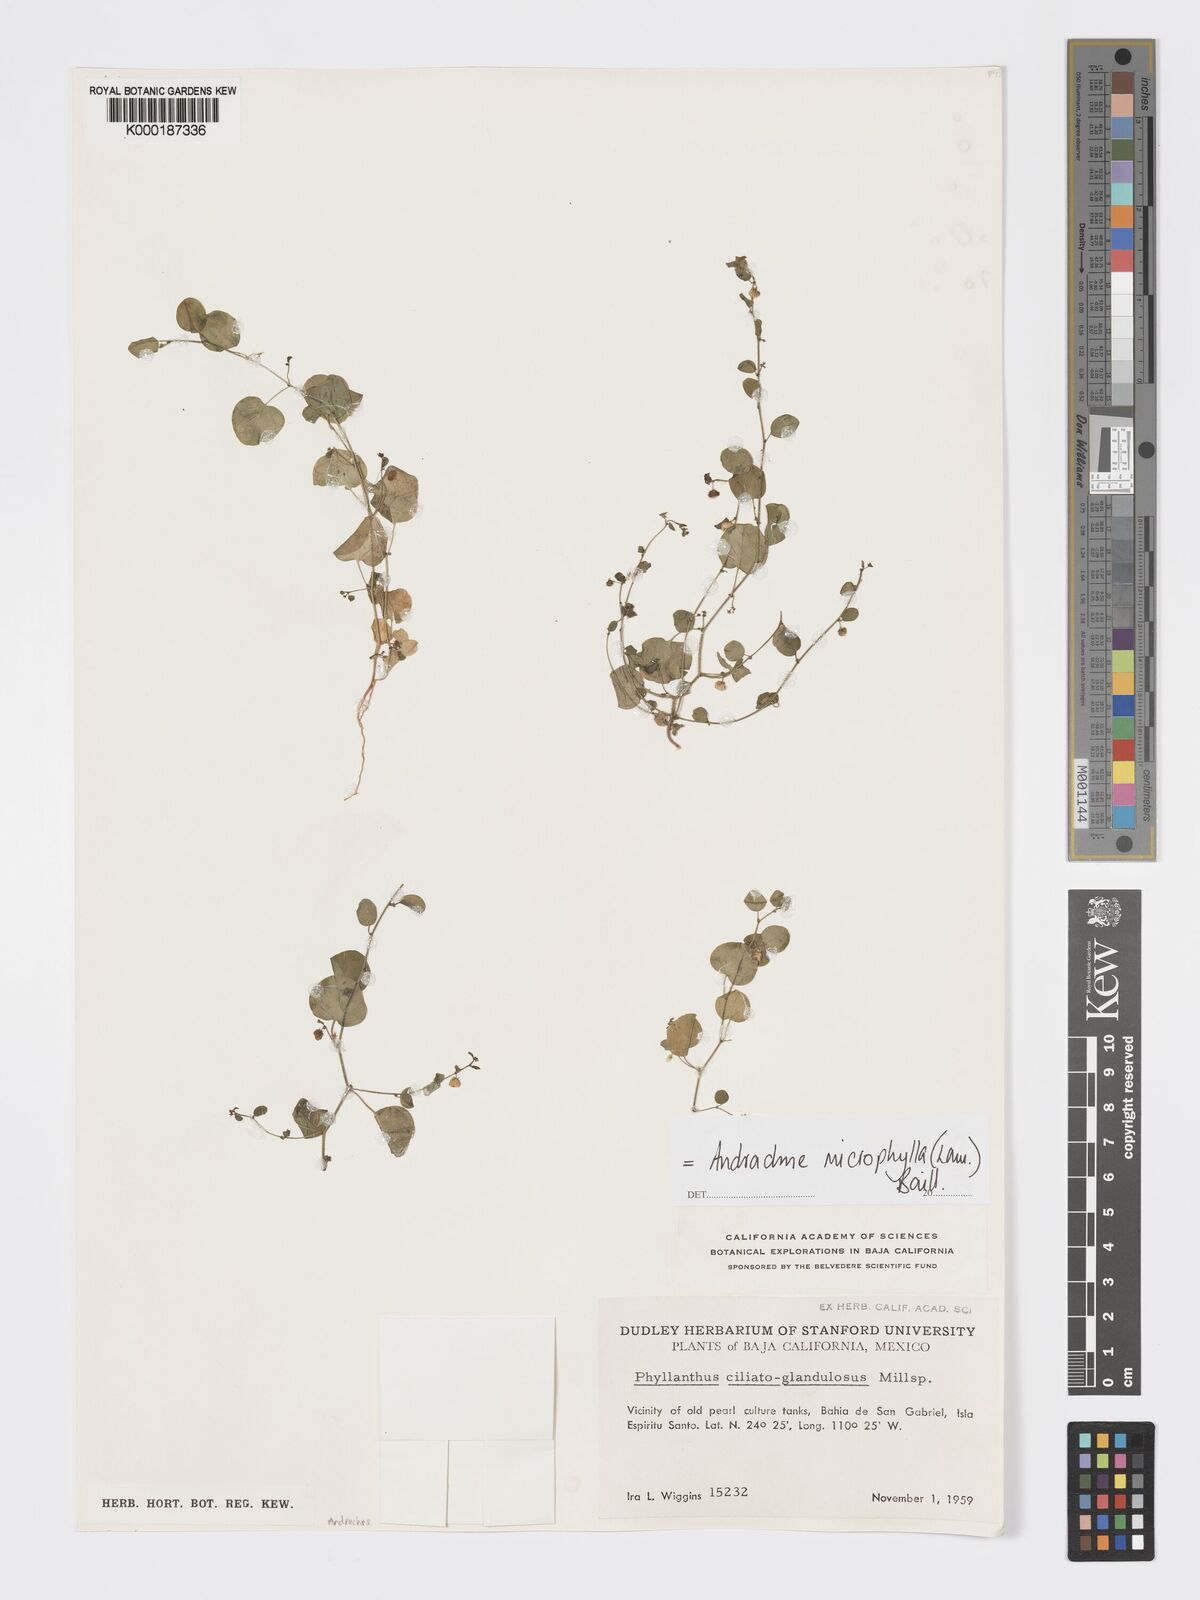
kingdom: Plantae
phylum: Tracheophyta
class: Magnoliopsida
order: Malpighiales
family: Phyllanthaceae
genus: Andrachne
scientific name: Andrachne microphylla
